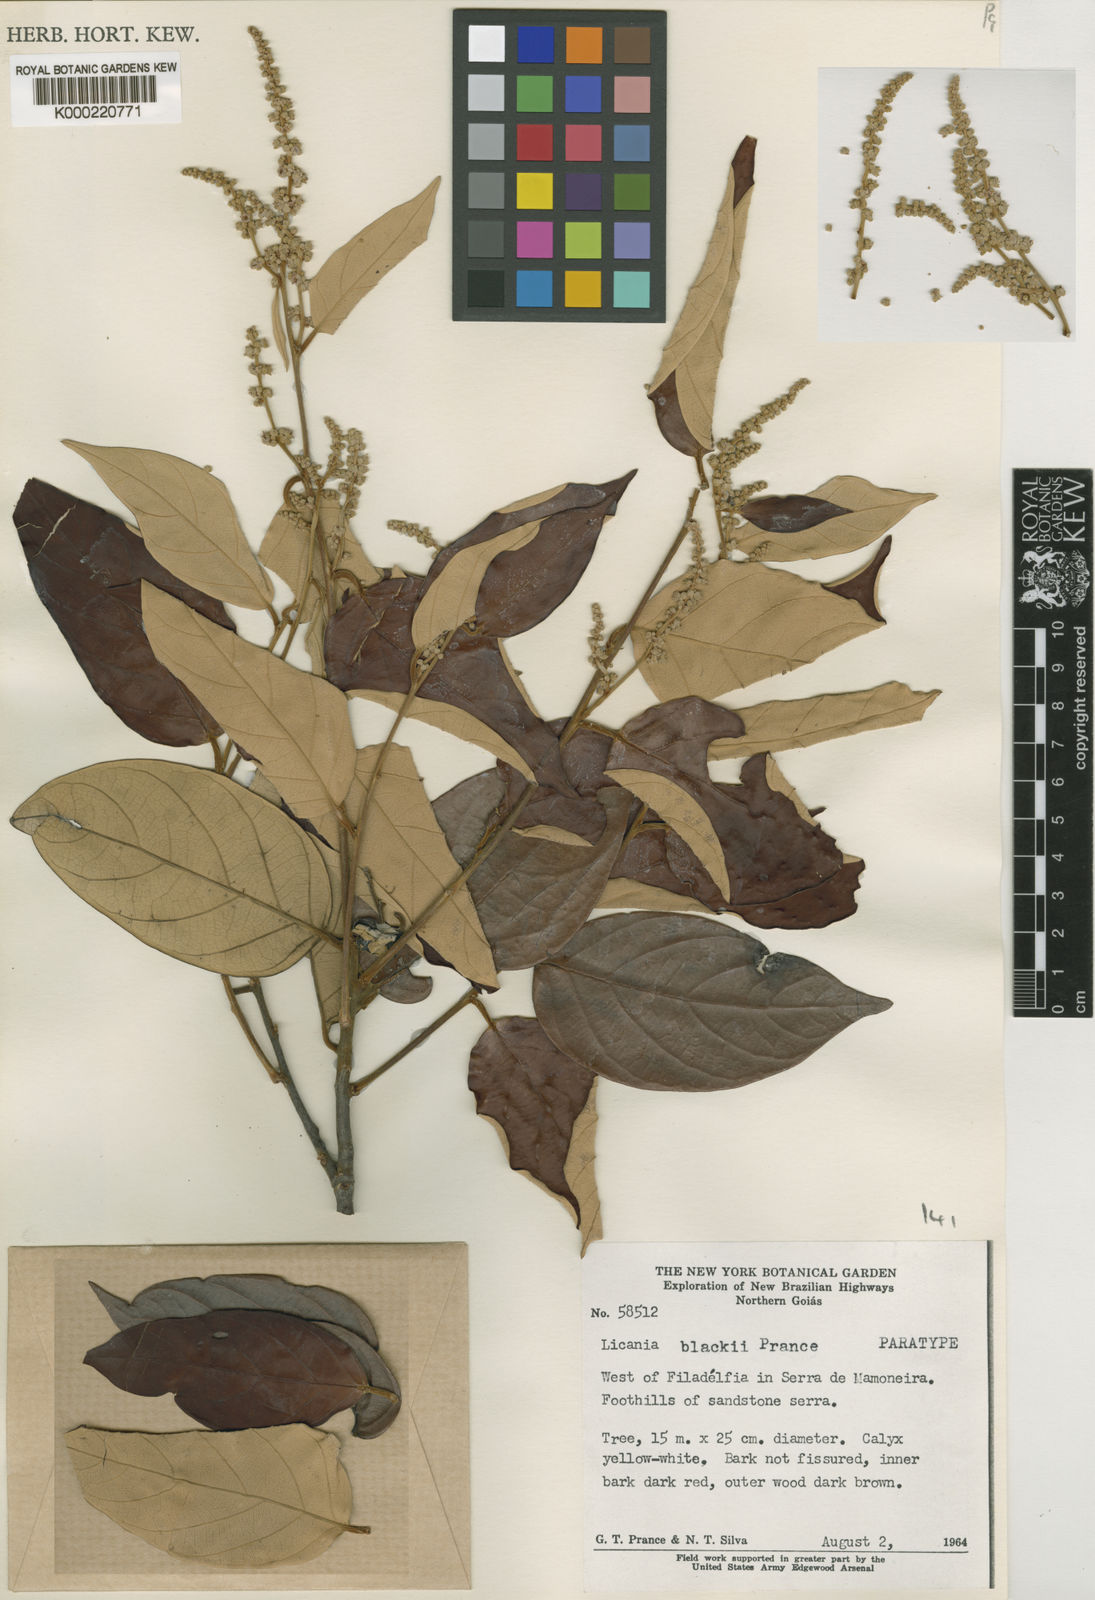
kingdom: Plantae
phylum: Tracheophyta
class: Magnoliopsida
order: Malpighiales
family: Chrysobalanaceae
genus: Licania
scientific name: Licania blackii
